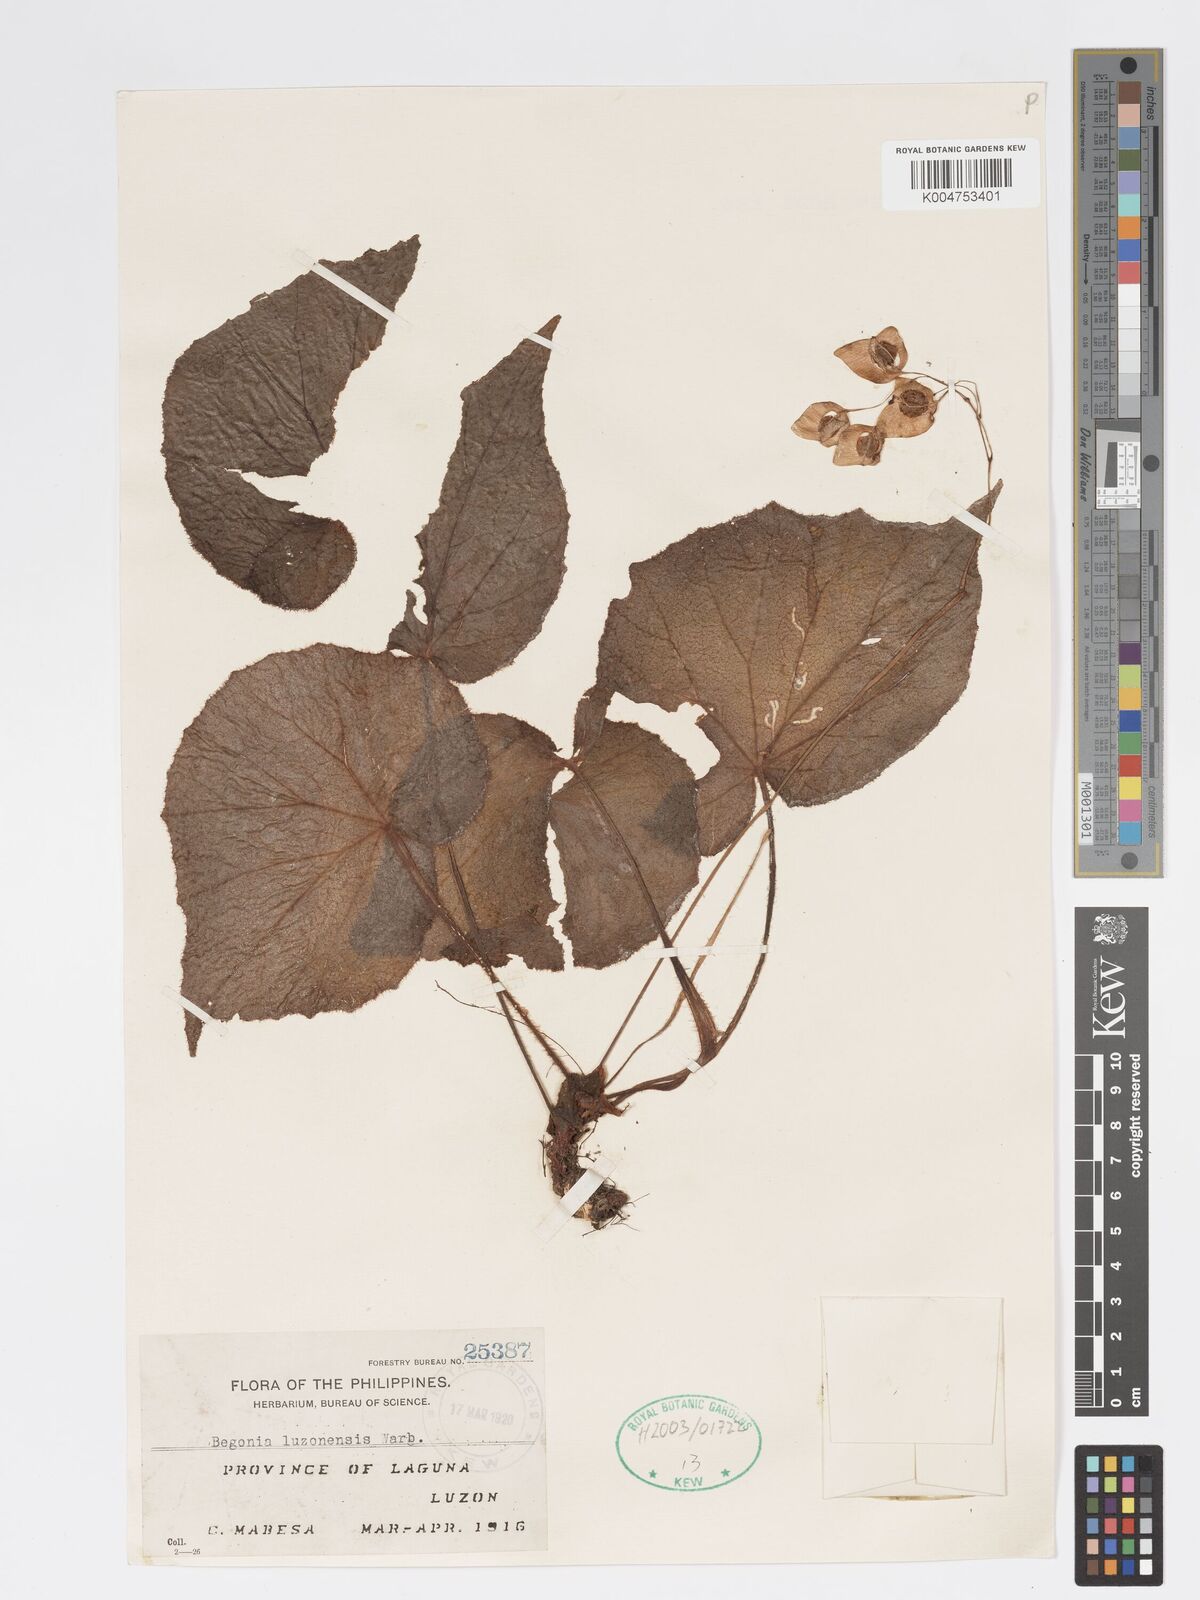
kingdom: Plantae
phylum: Tracheophyta
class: Magnoliopsida
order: Cucurbitales
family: Begoniaceae
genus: Begonia
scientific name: Begonia luzonensis
